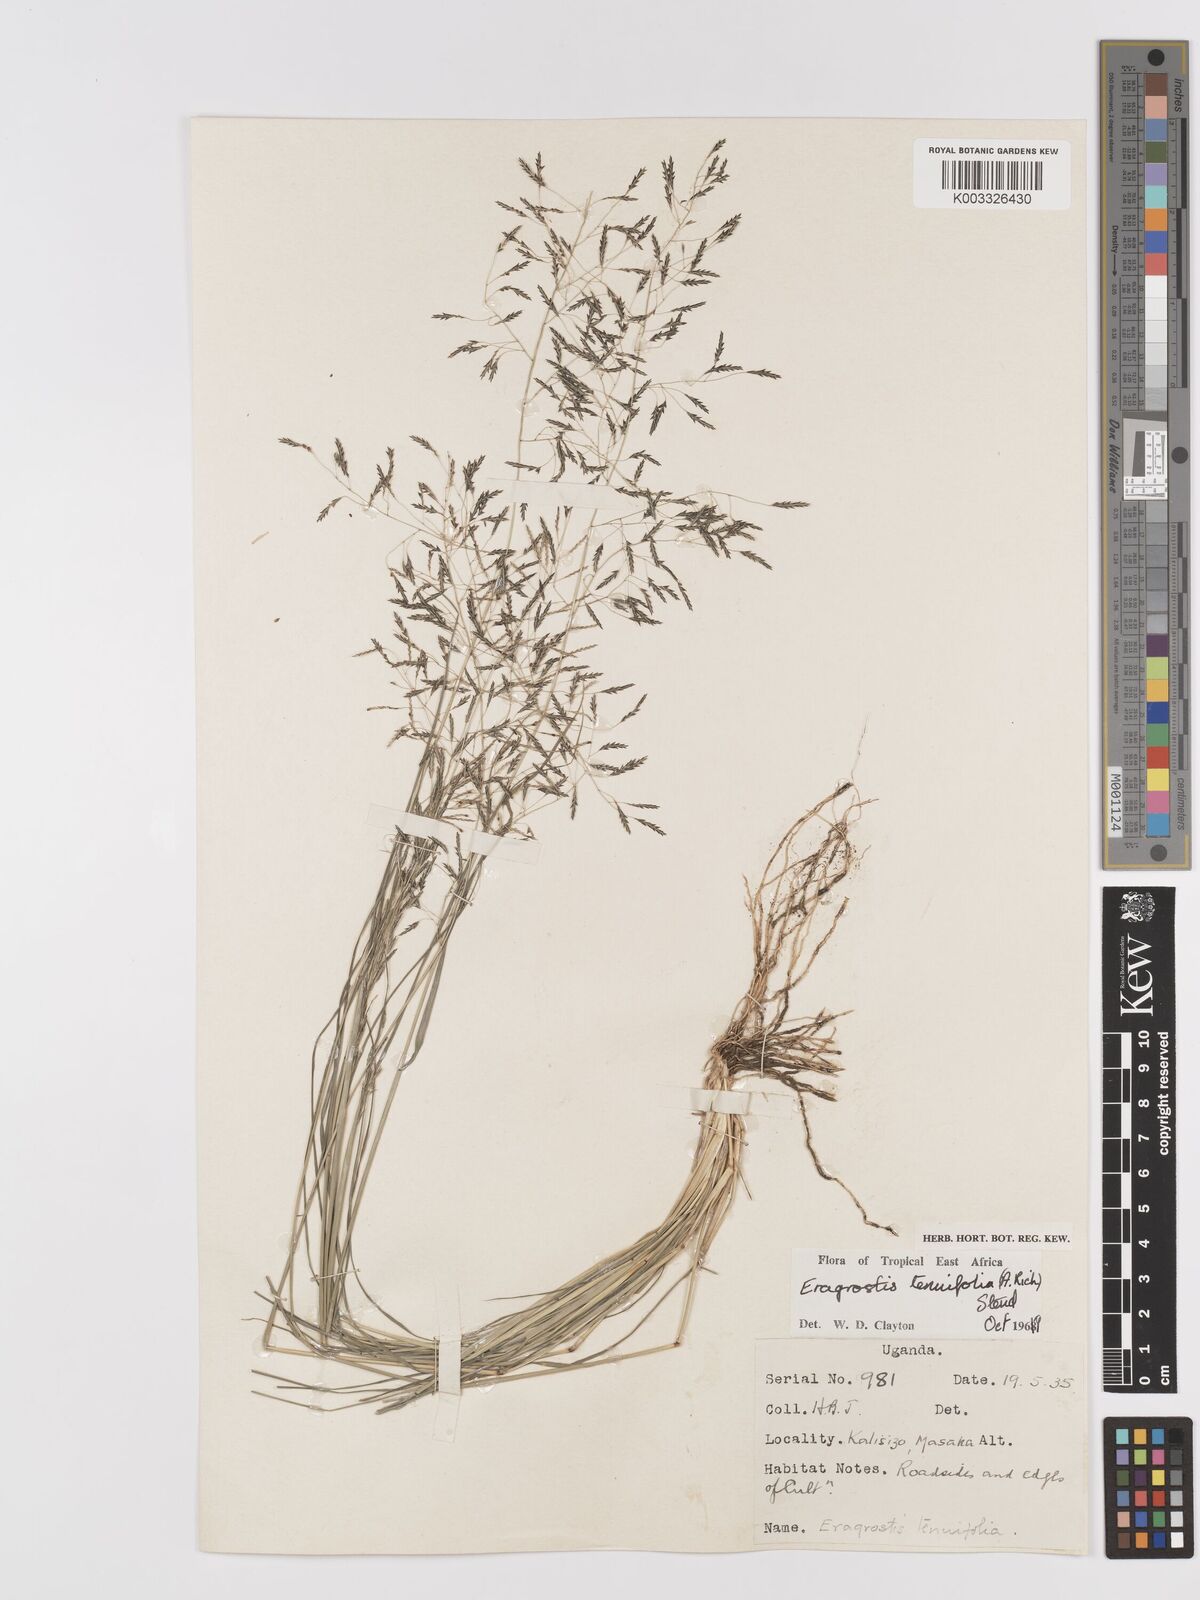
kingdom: Plantae
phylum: Tracheophyta
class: Liliopsida
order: Poales
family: Poaceae
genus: Eragrostis
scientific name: Eragrostis tenuifolia
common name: Elastic grass
